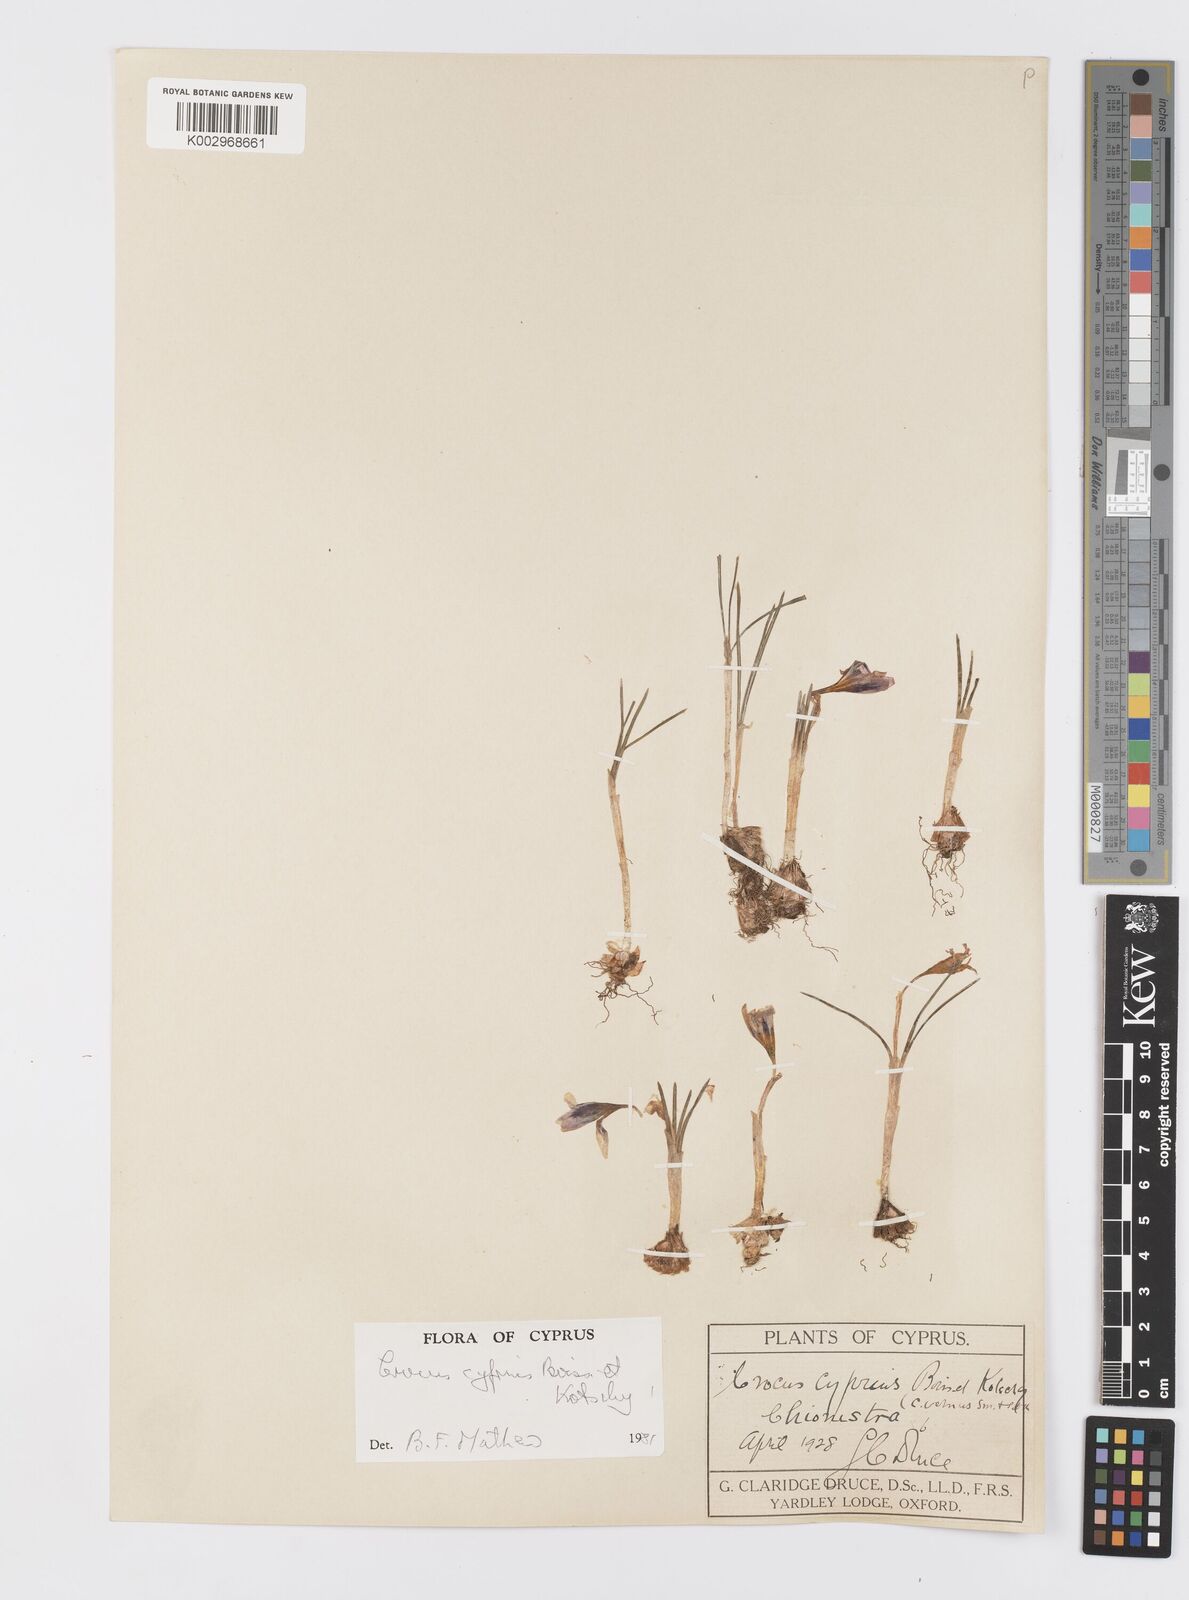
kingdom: Plantae
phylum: Tracheophyta
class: Liliopsida
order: Asparagales
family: Iridaceae
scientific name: Iridaceae
